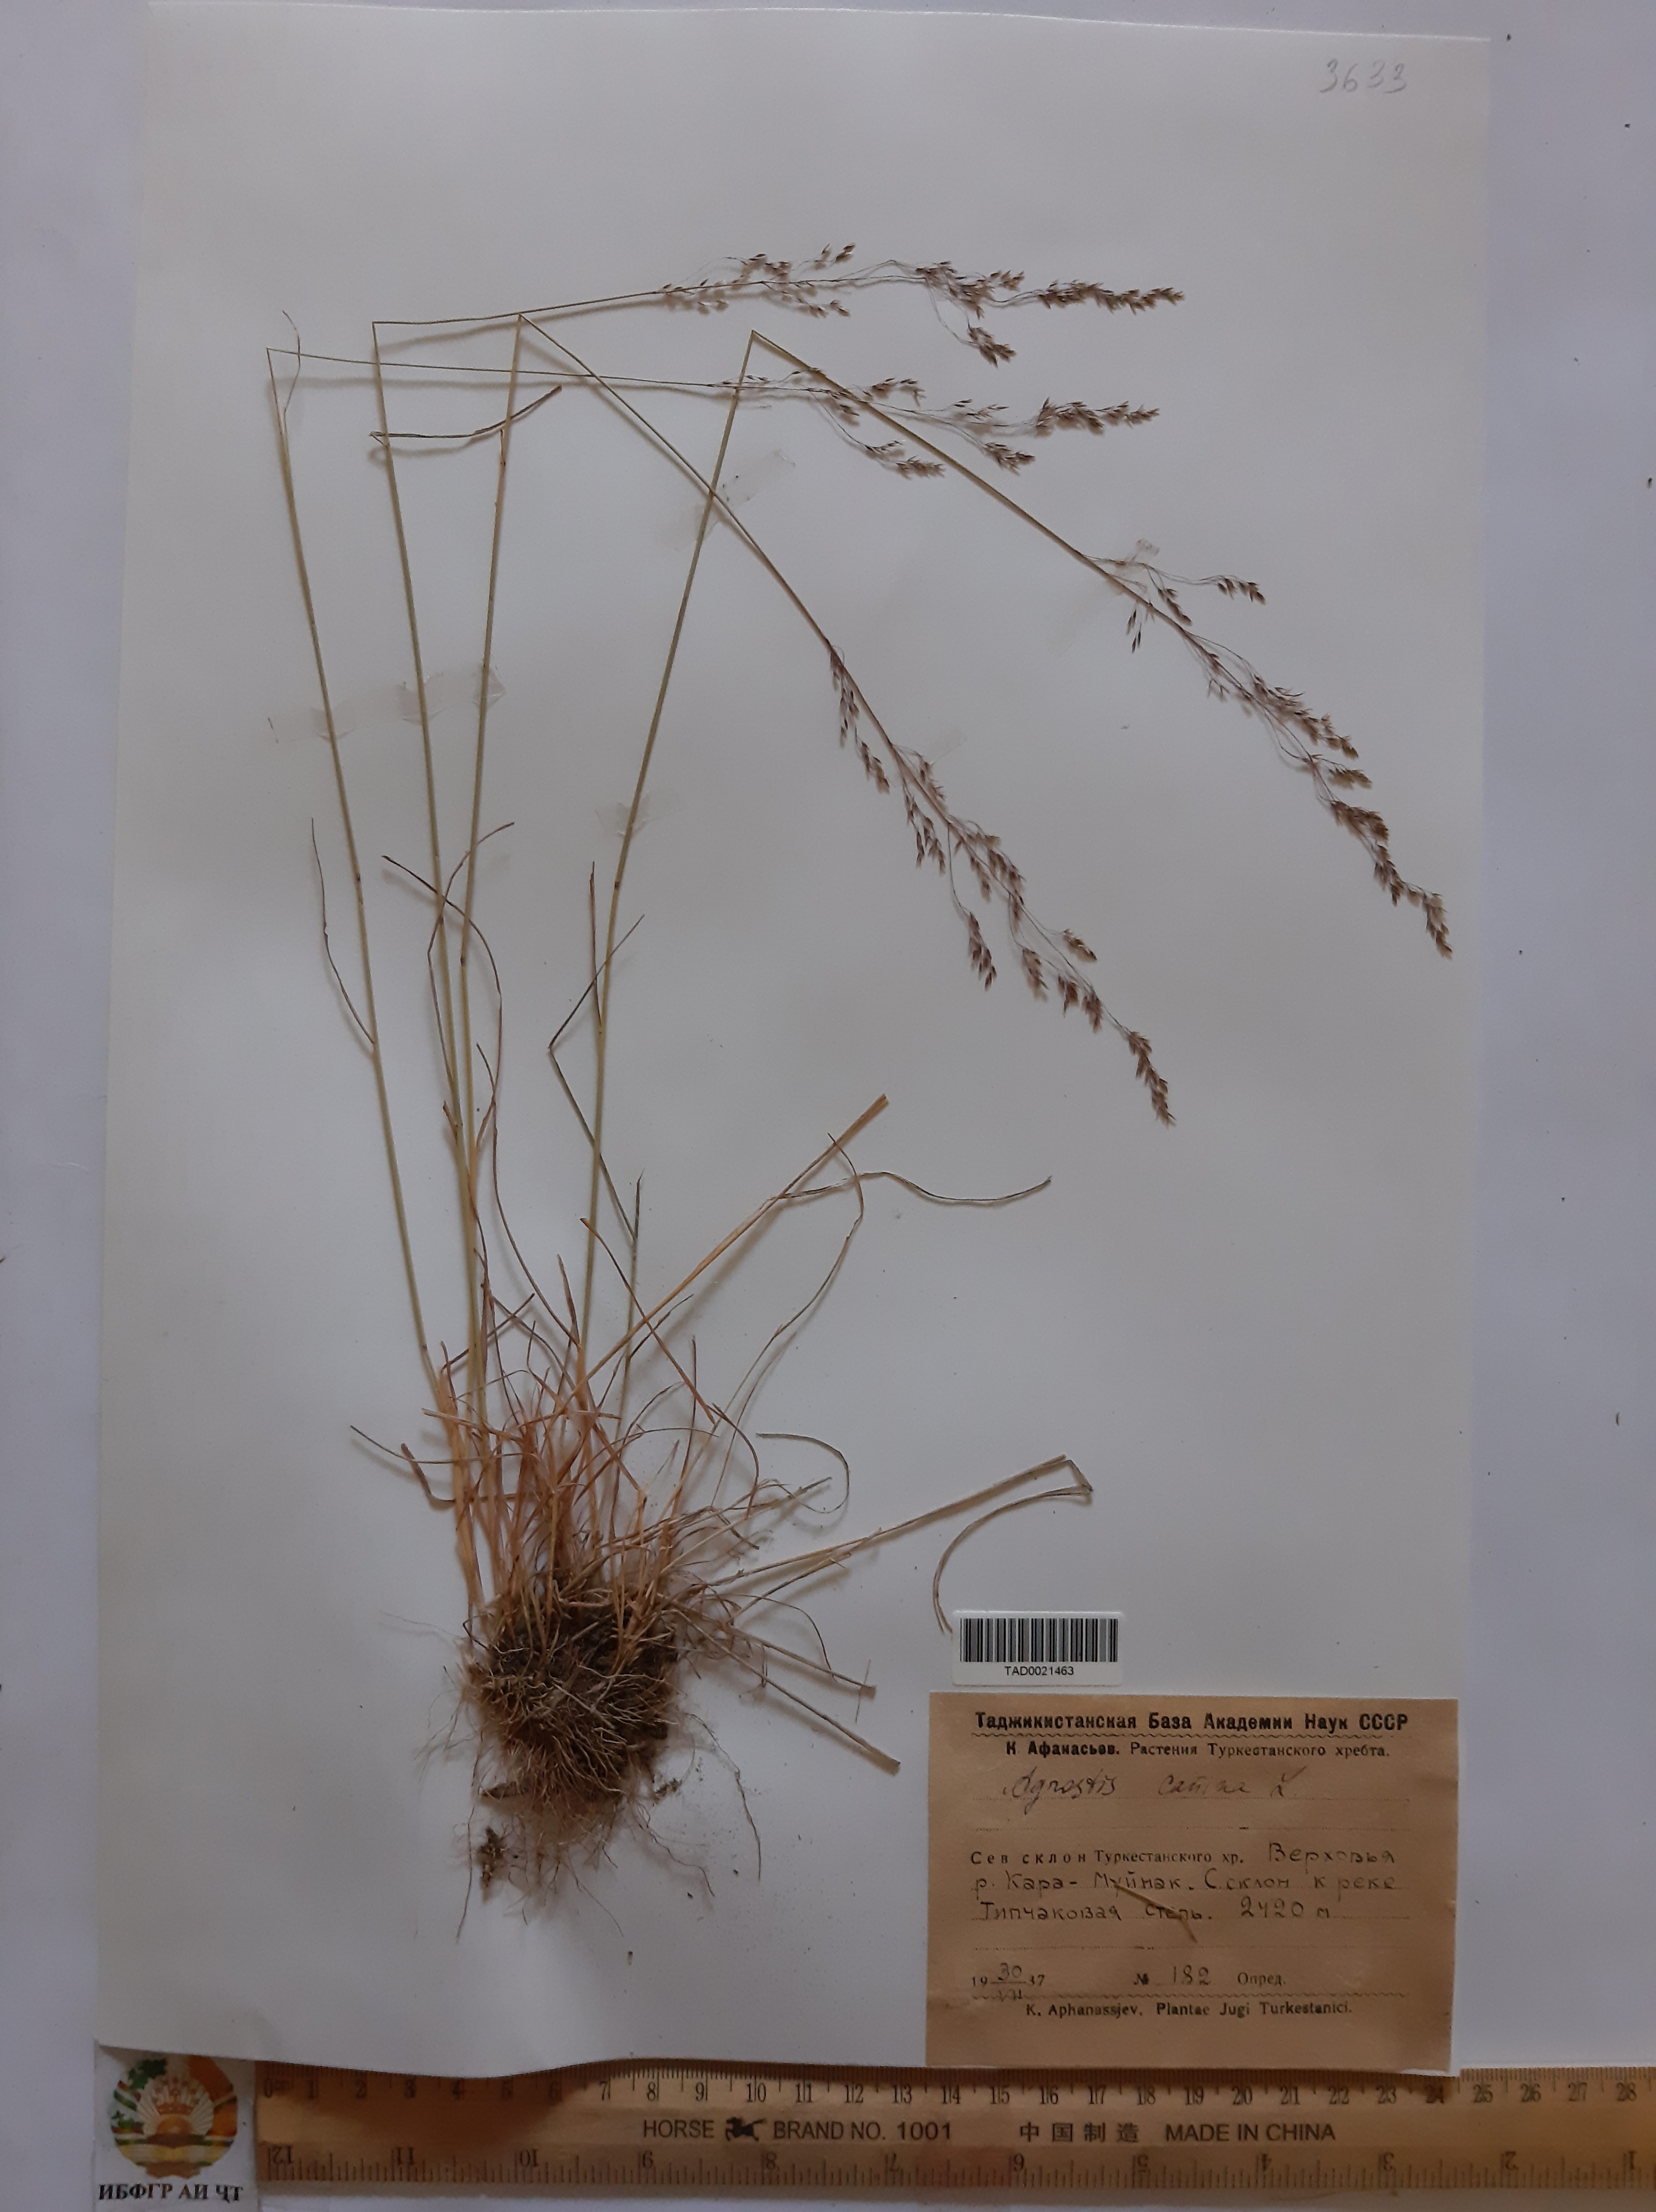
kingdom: Plantae
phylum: Tracheophyta
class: Liliopsida
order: Poales
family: Poaceae
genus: Agrostis
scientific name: Agrostis canina
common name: Velvet bent
